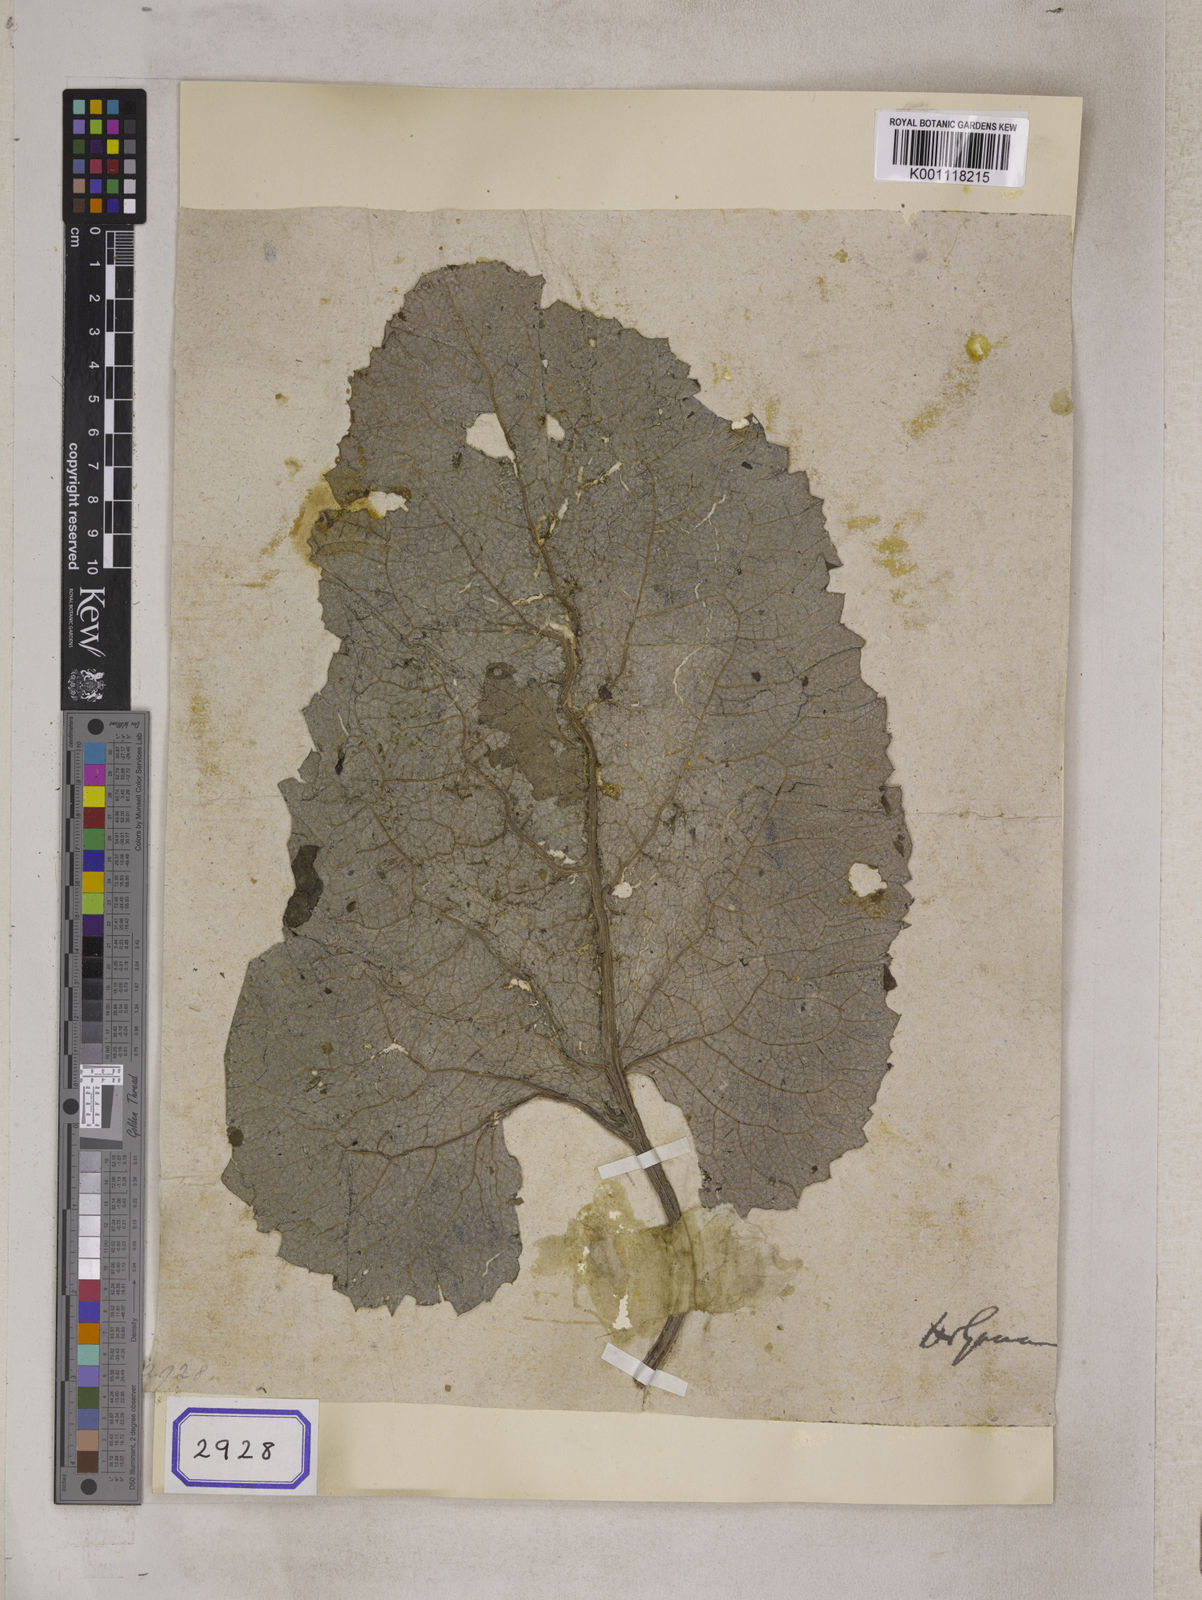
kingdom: Plantae
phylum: Tracheophyta
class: Magnoliopsida
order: Asterales
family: Asteraceae
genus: Arctium
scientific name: Arctium lappa
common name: Greater burdock
